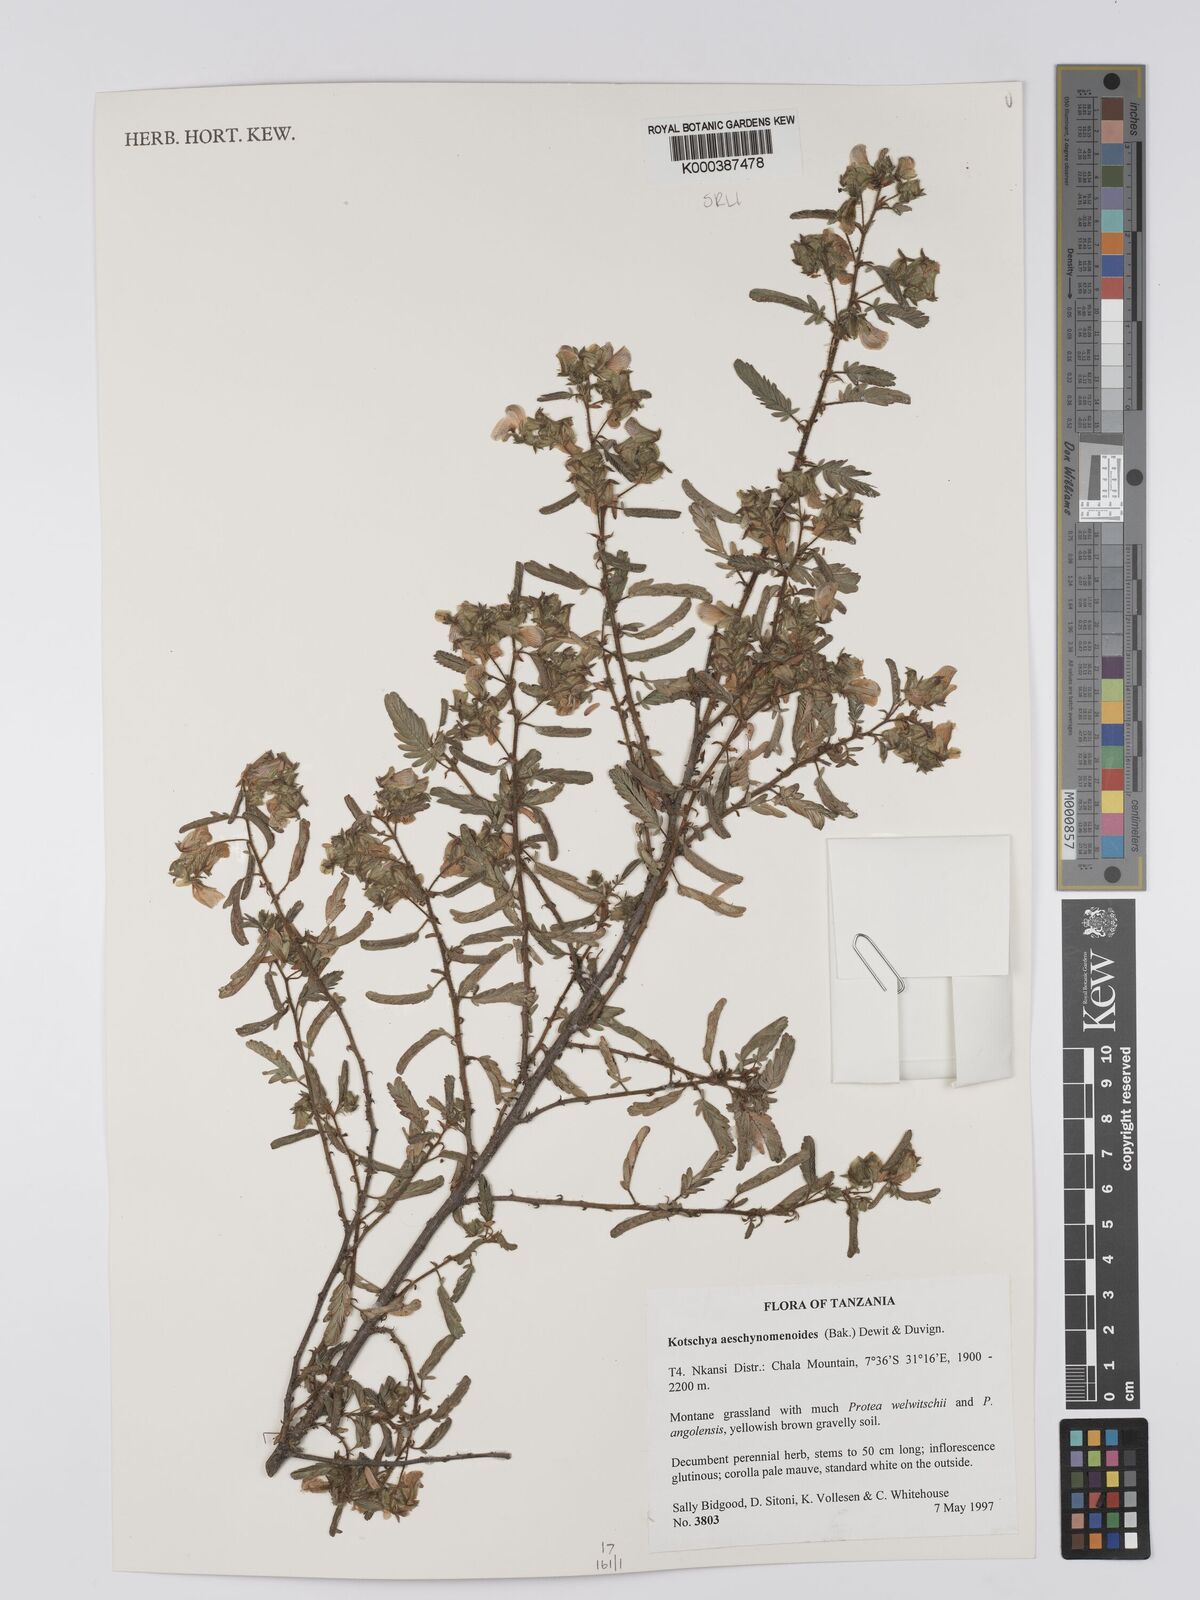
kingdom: Plantae
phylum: Tracheophyta
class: Magnoliopsida
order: Fabales
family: Fabaceae
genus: Kotschya
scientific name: Kotschya aeschynomenoides
